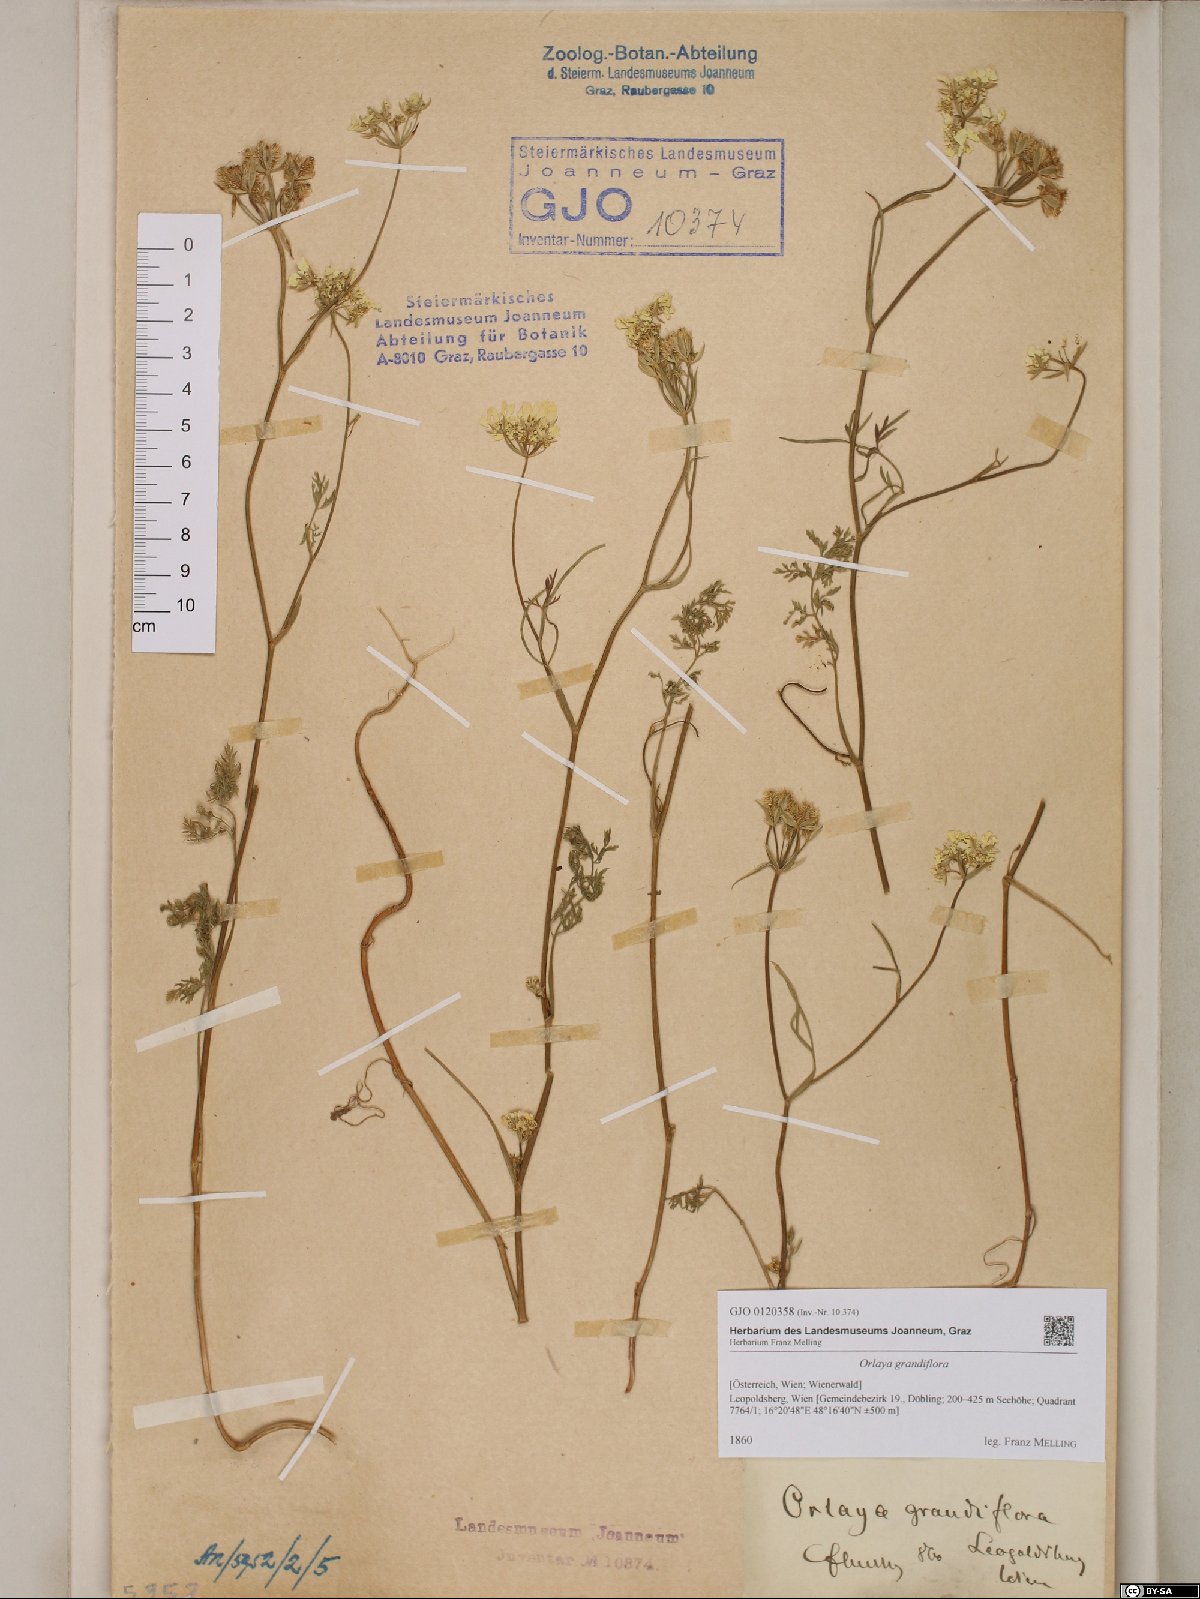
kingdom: Plantae
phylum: Tracheophyta
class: Magnoliopsida
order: Apiales
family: Apiaceae
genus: Orlaya
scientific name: Orlaya grandiflora
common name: White lace flower
